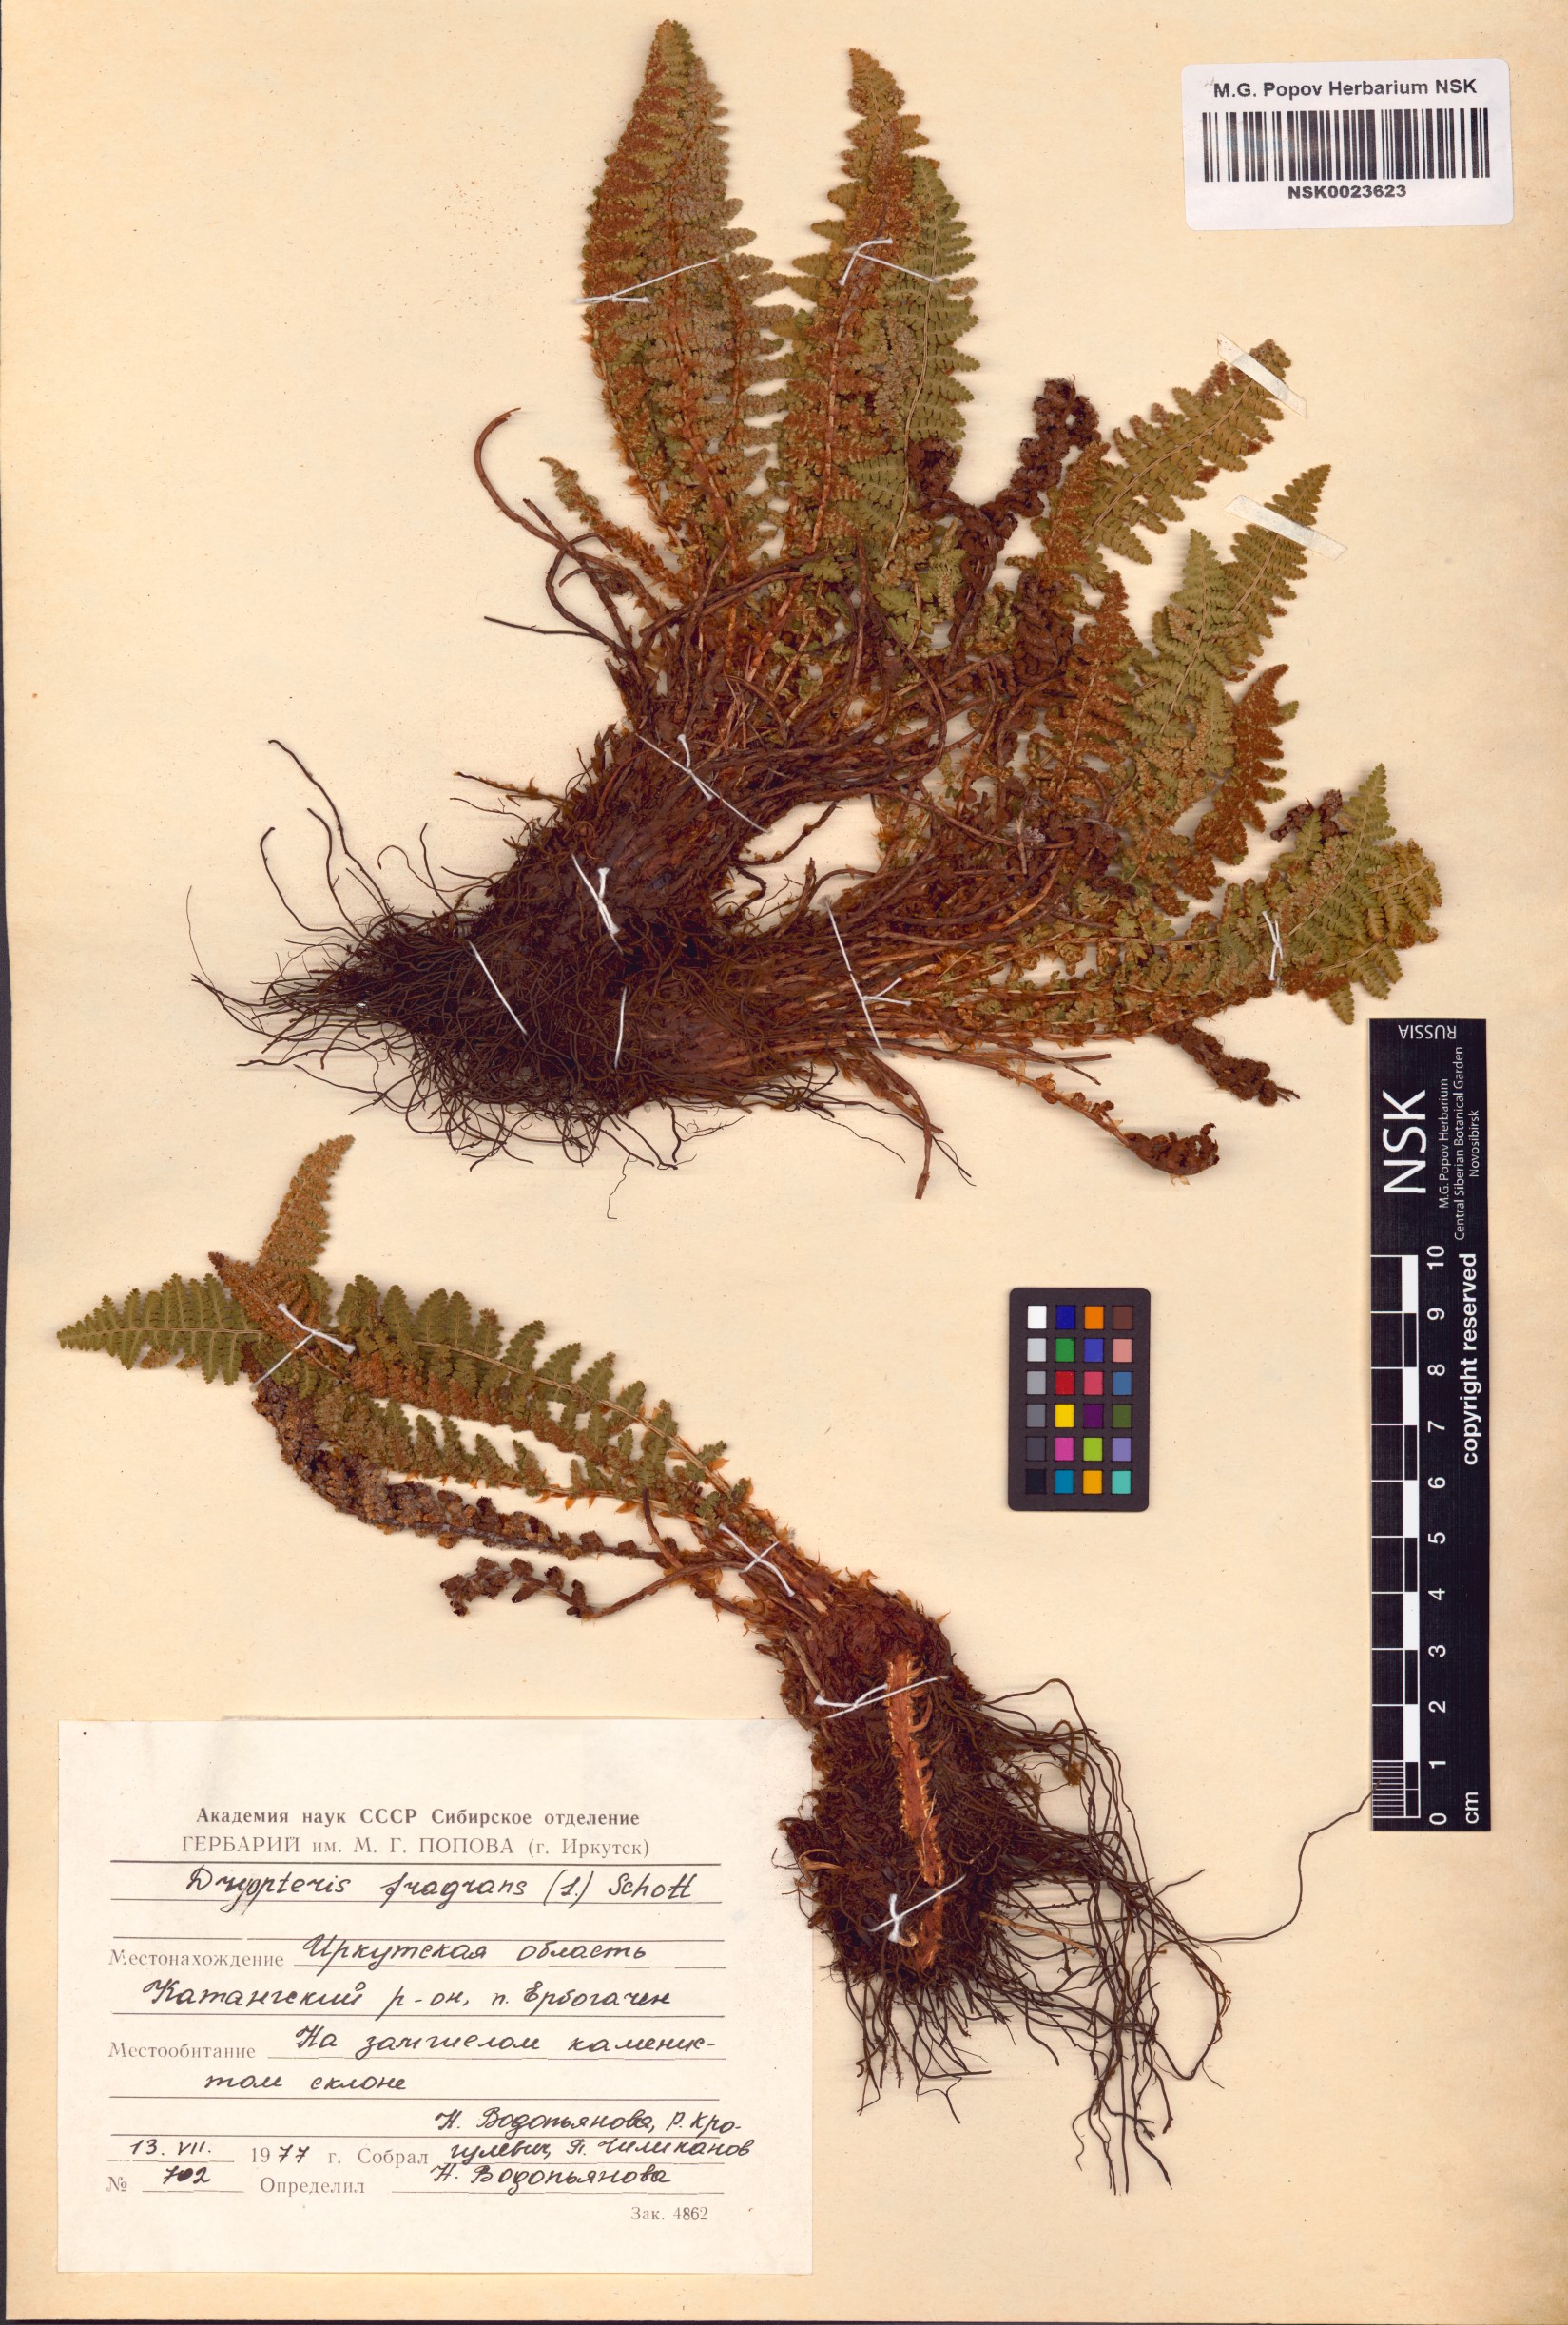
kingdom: Plantae
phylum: Tracheophyta
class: Polypodiopsida
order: Polypodiales
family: Dryopteridaceae
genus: Dryopteris
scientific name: Dryopteris fragrans
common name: Fragrant wood fern
